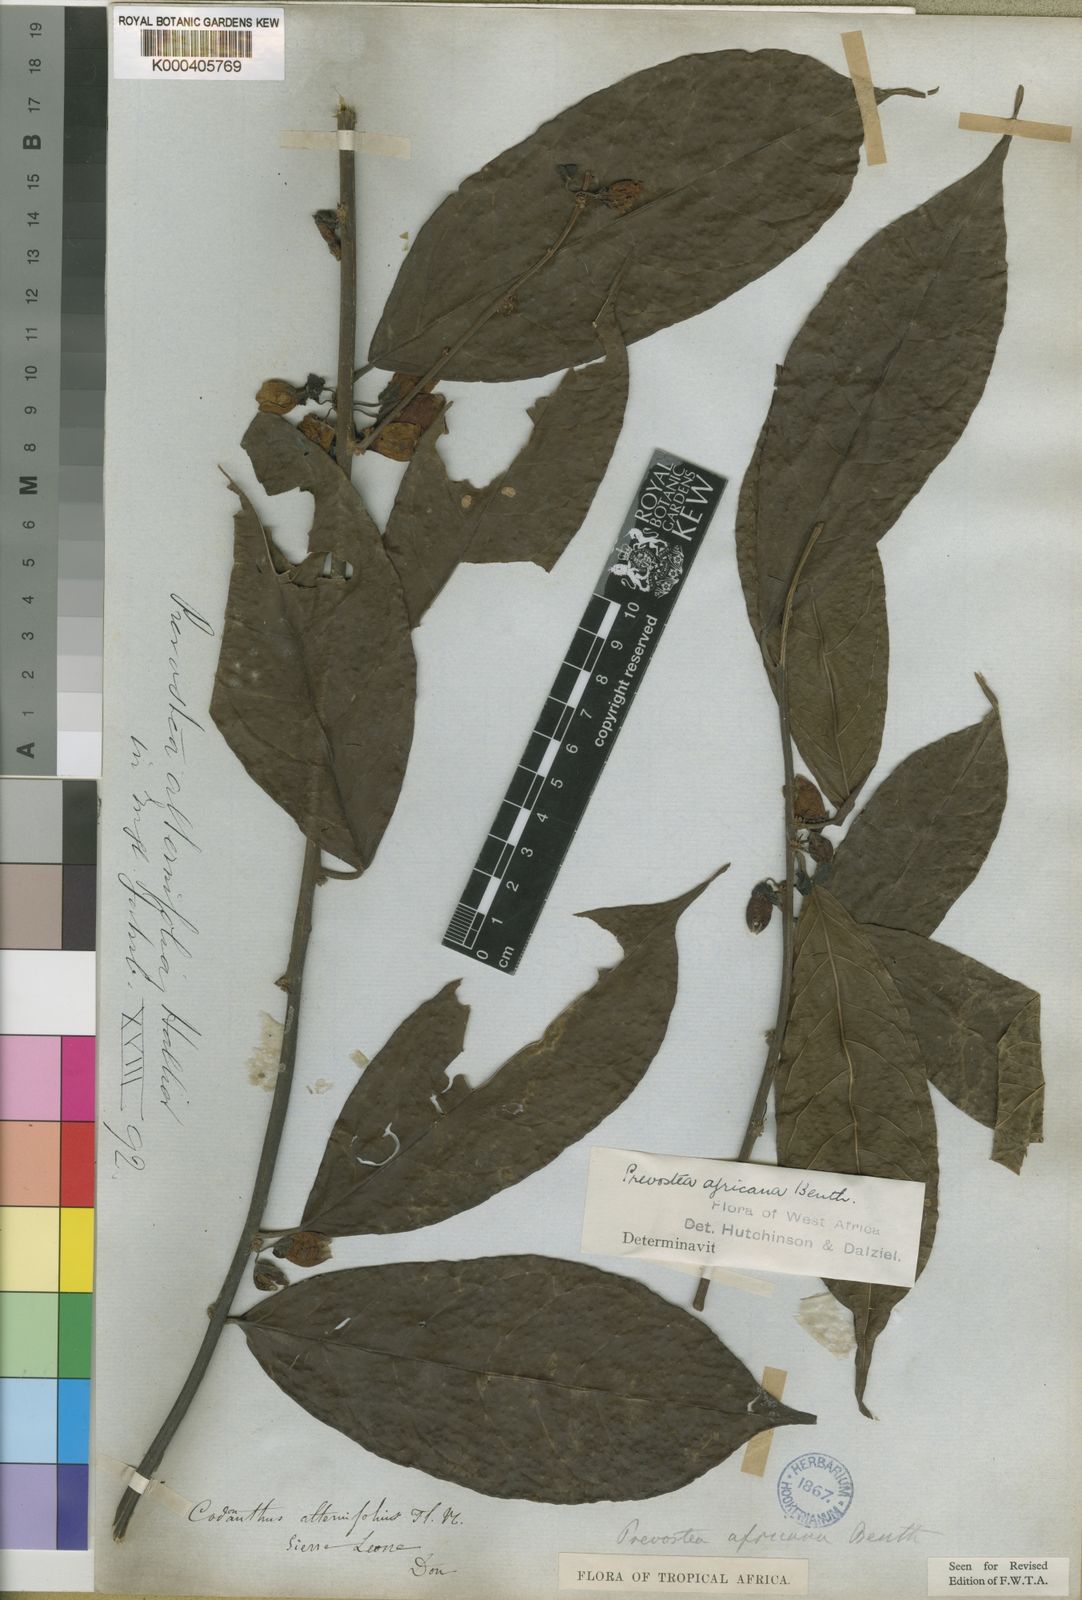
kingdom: Plantae
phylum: Tracheophyta
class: Magnoliopsida
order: Solanales
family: Convolvulaceae
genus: Calycobolus
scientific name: Calycobolus africanus
